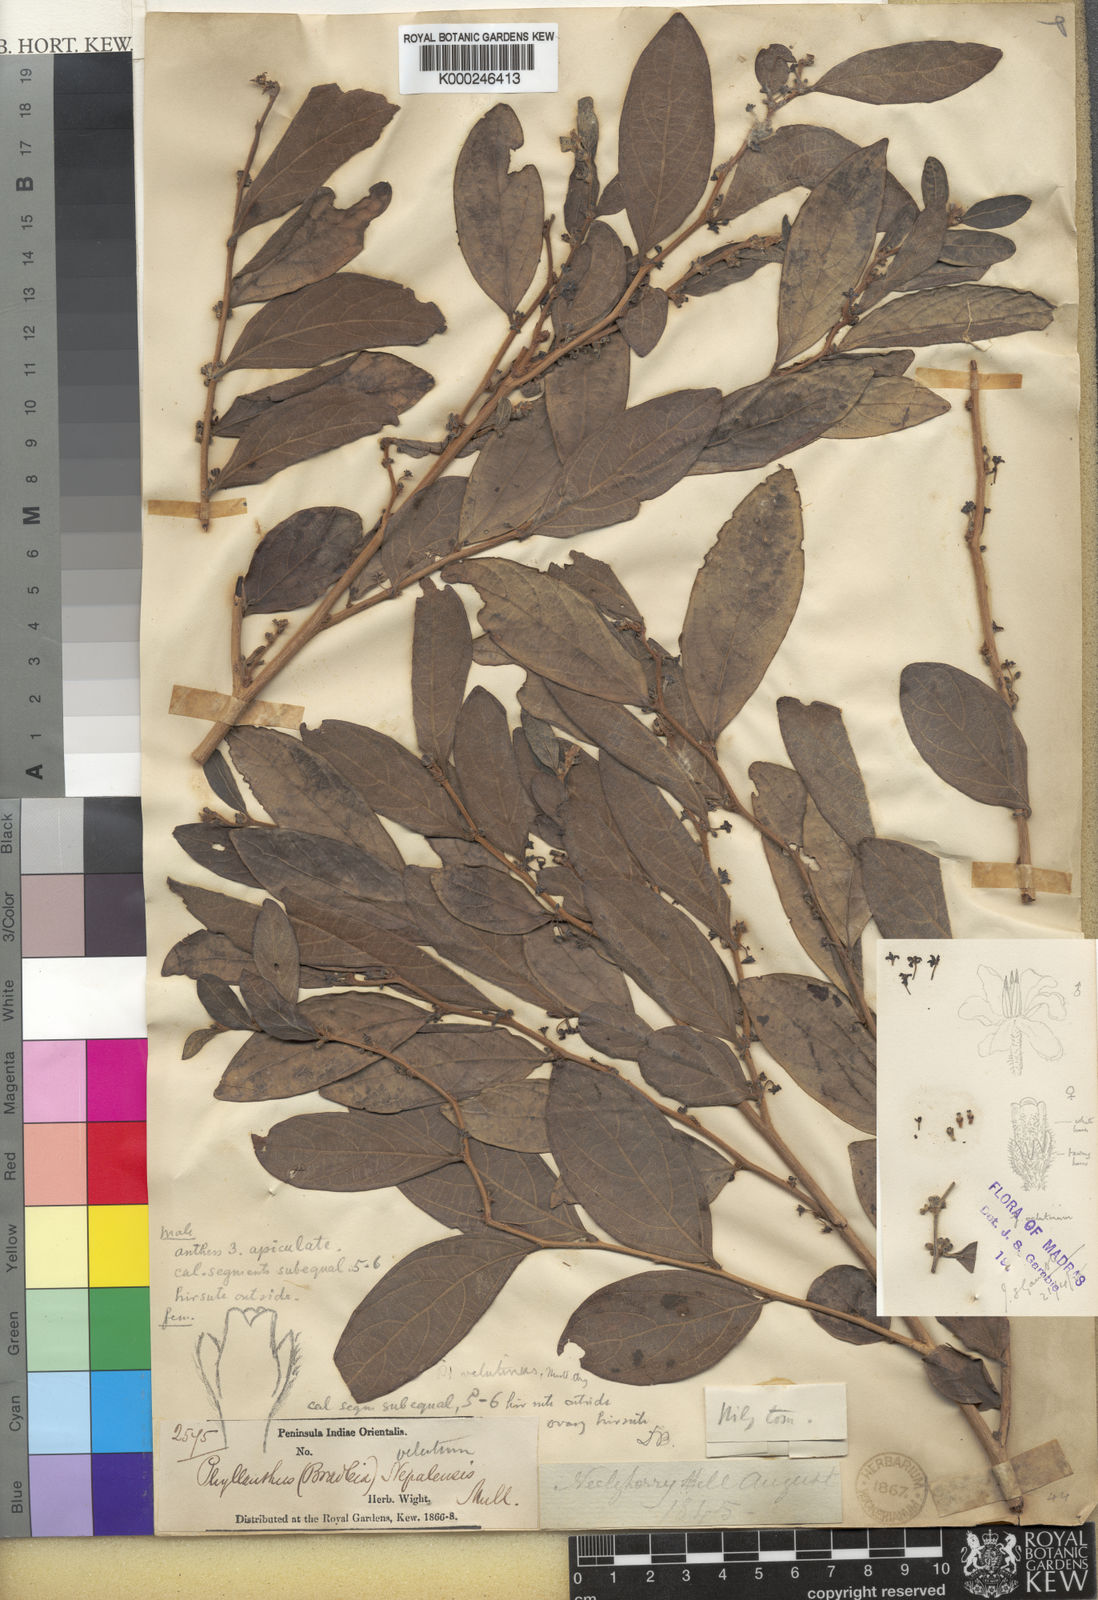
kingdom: Plantae
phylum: Tracheophyta
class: Magnoliopsida
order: Malpighiales
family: Phyllanthaceae
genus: Glochidion
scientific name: Glochidion heyneanum
